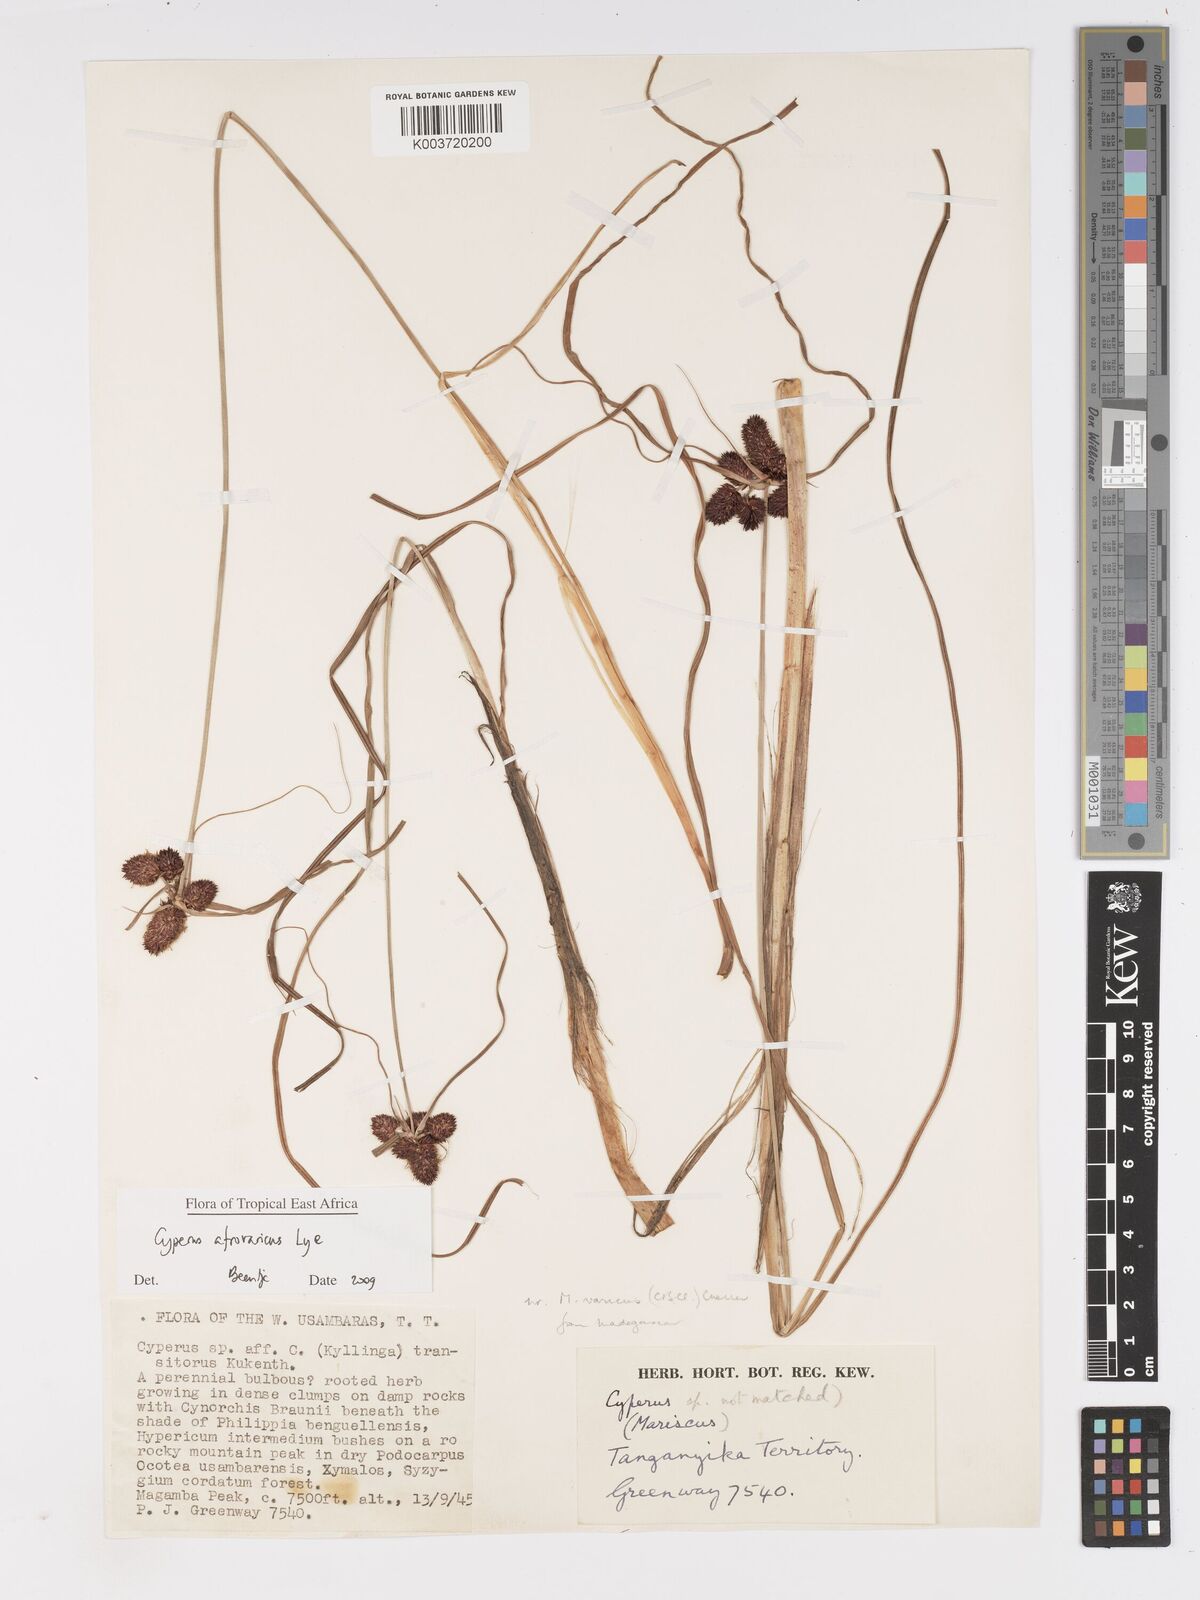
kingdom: Plantae
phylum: Tracheophyta
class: Liliopsida
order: Poales
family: Cyperaceae
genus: Cyperus
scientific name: Cyperus afroalpinus
